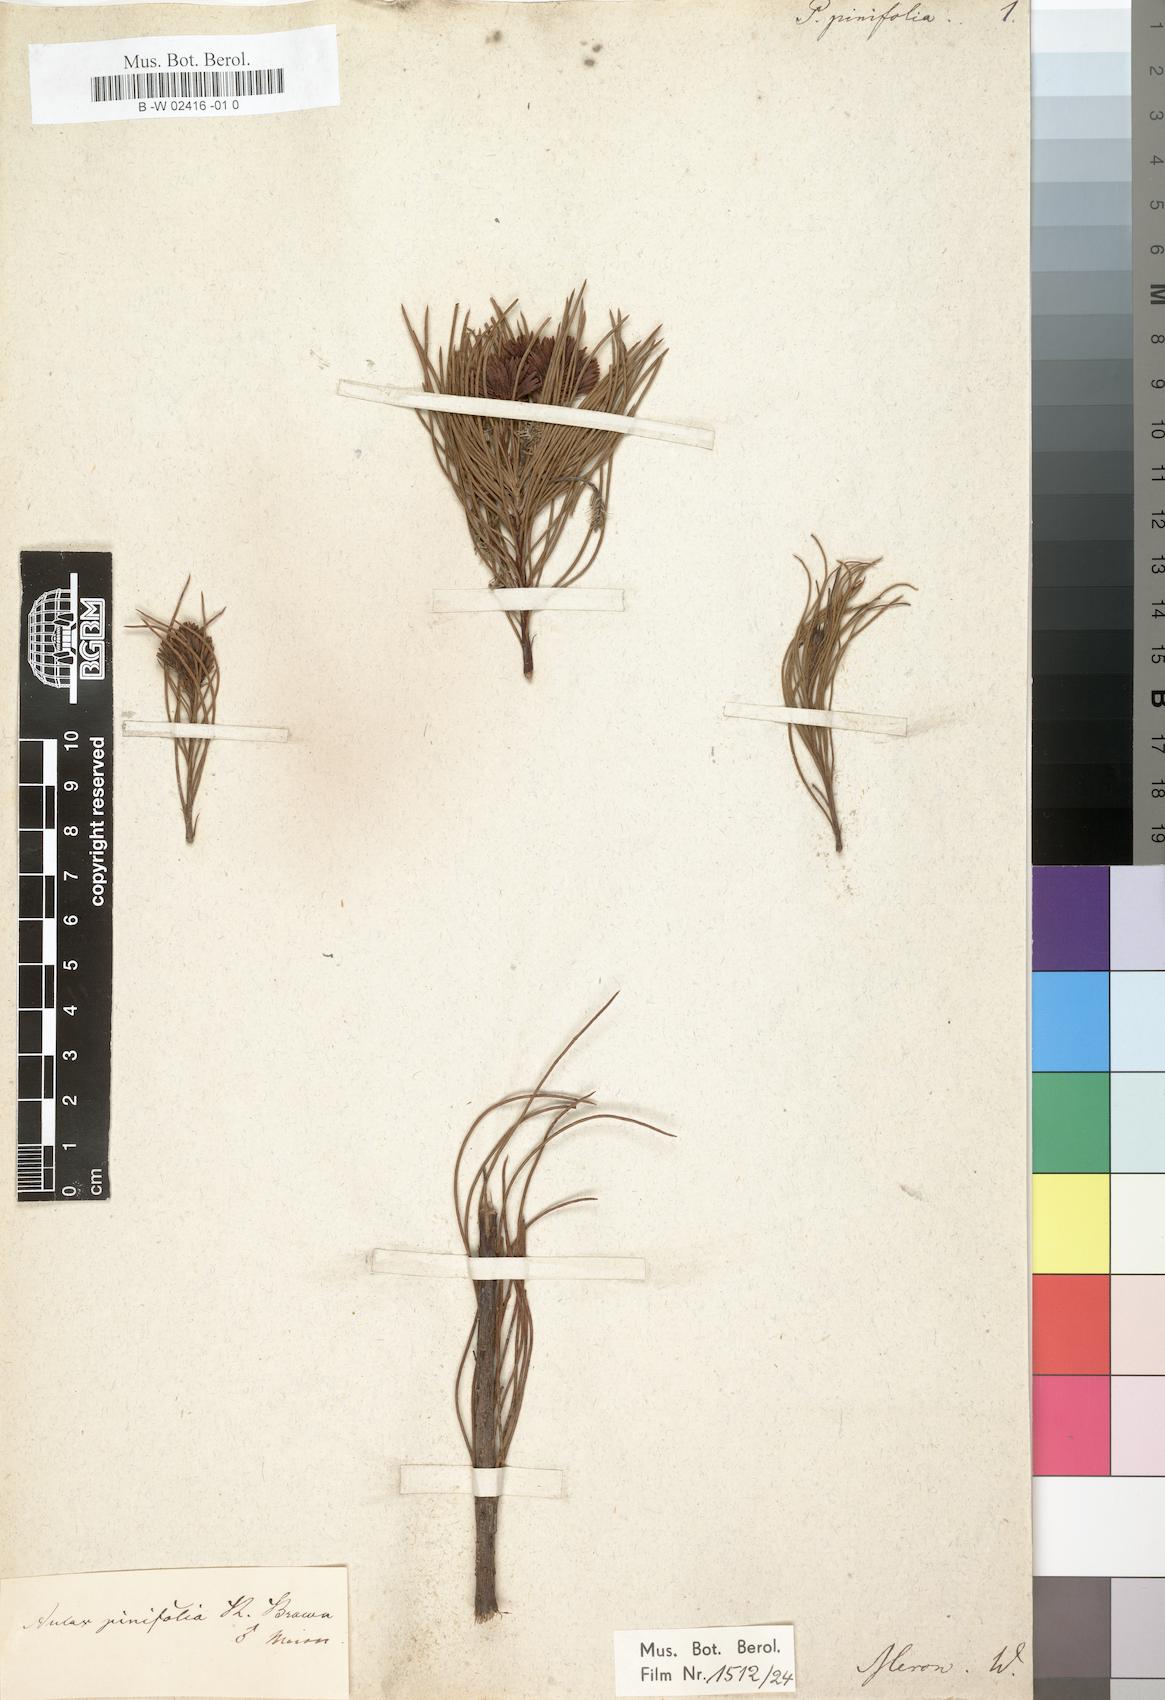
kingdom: Plantae
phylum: Tracheophyta
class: Magnoliopsida
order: Proteales
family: Proteaceae
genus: Aulax
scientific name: Aulax cancellata
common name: Channel-leaf featherbush
